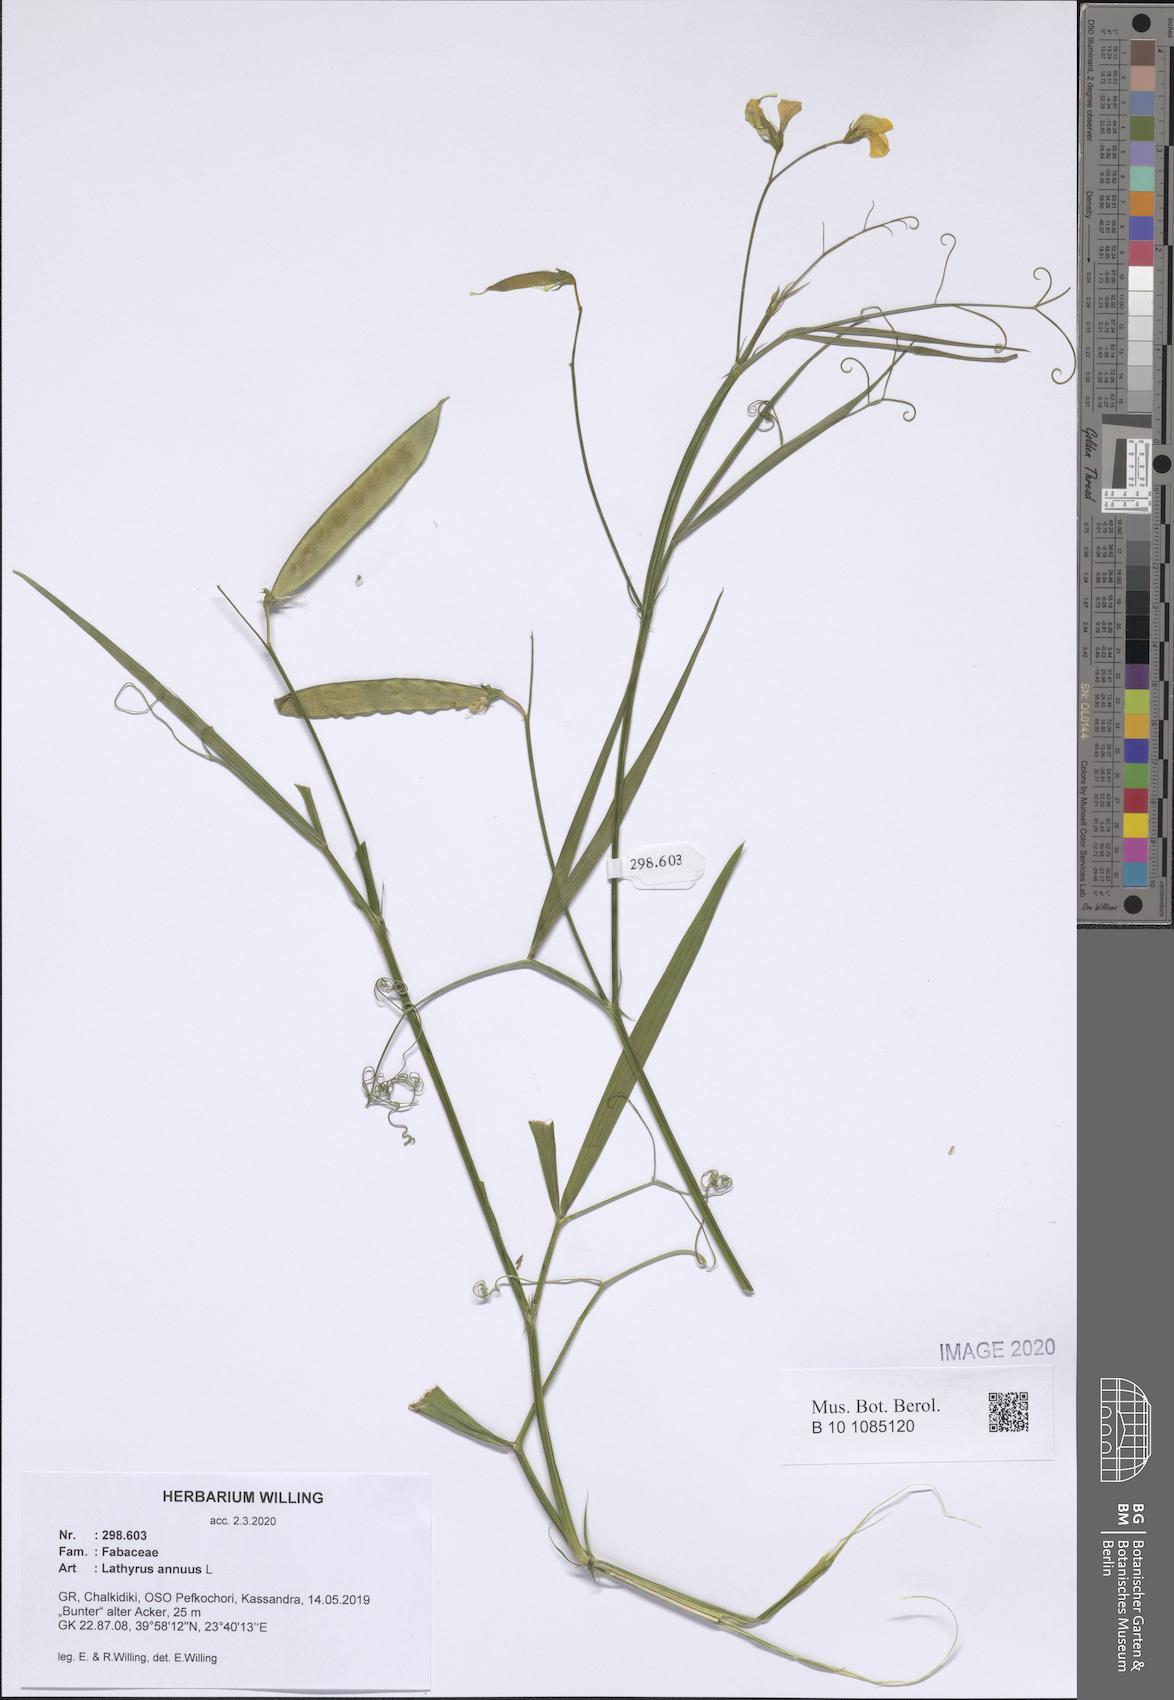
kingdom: Plantae
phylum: Tracheophyta
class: Magnoliopsida
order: Fabales
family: Fabaceae
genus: Lathyrus
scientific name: Lathyrus annuus
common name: Fodder pea
